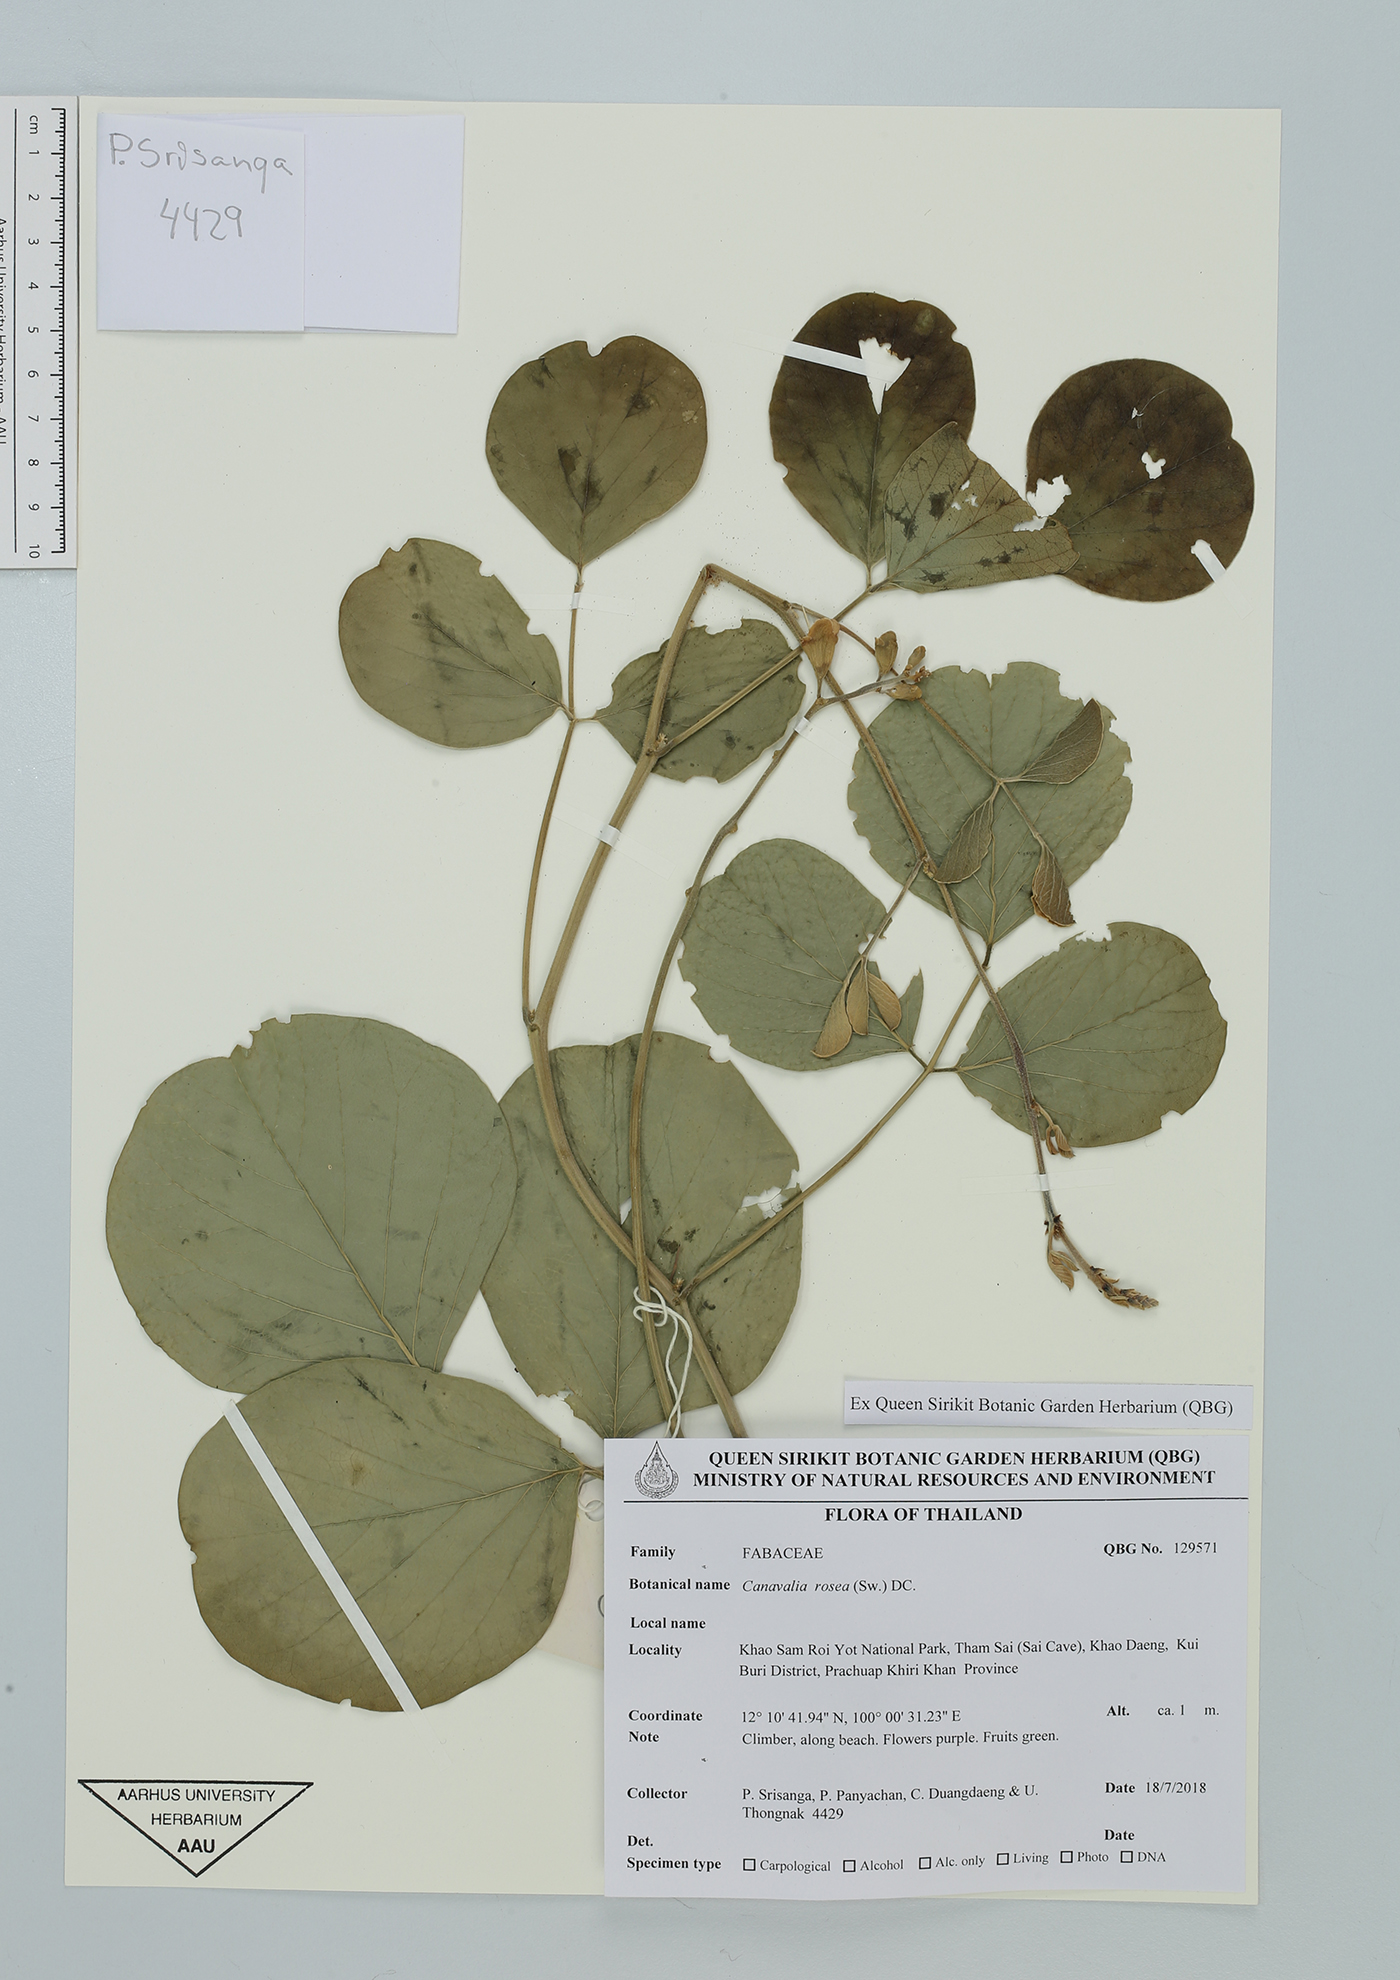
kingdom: Plantae
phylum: Tracheophyta
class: Magnoliopsida
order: Fabales
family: Fabaceae
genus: Canavalia
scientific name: Canavalia rosea
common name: Beach-bean
